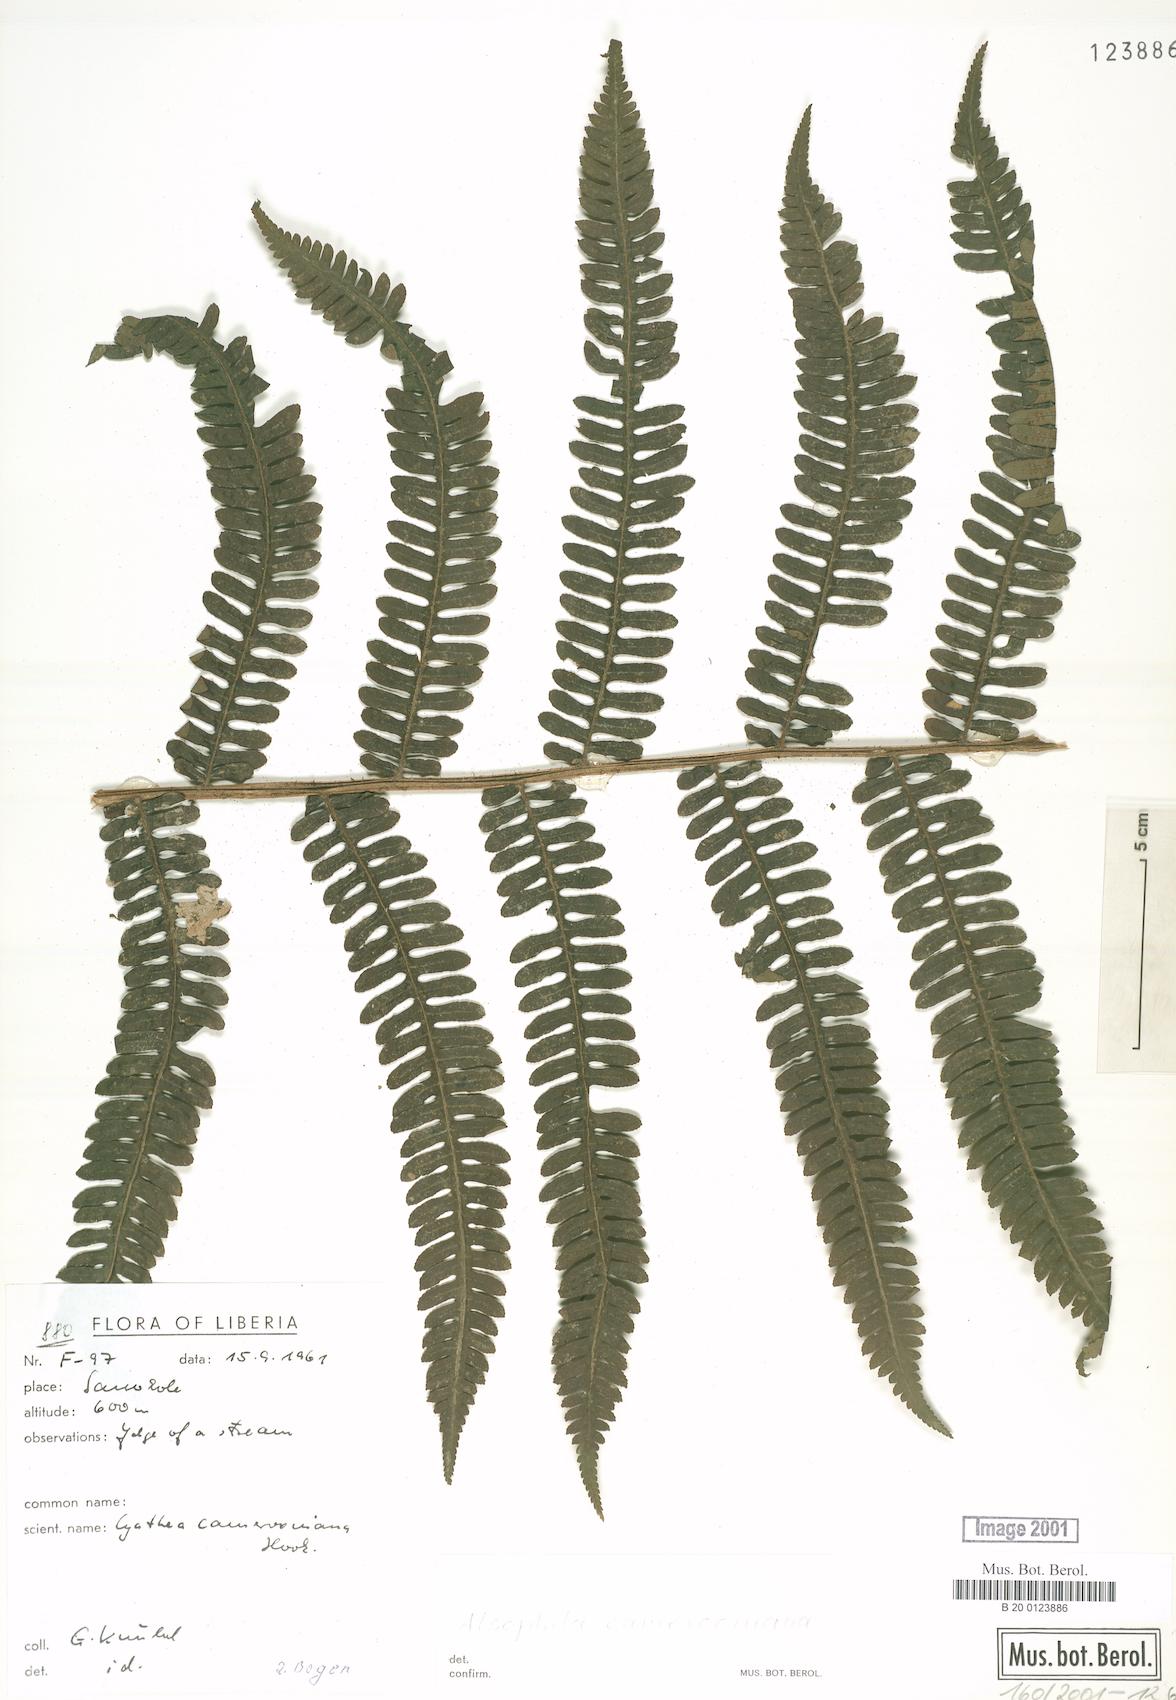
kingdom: Plantae
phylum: Tracheophyta
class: Polypodiopsida
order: Cyatheales
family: Cyatheaceae
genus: Alsophila
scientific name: Alsophila camerooniana
